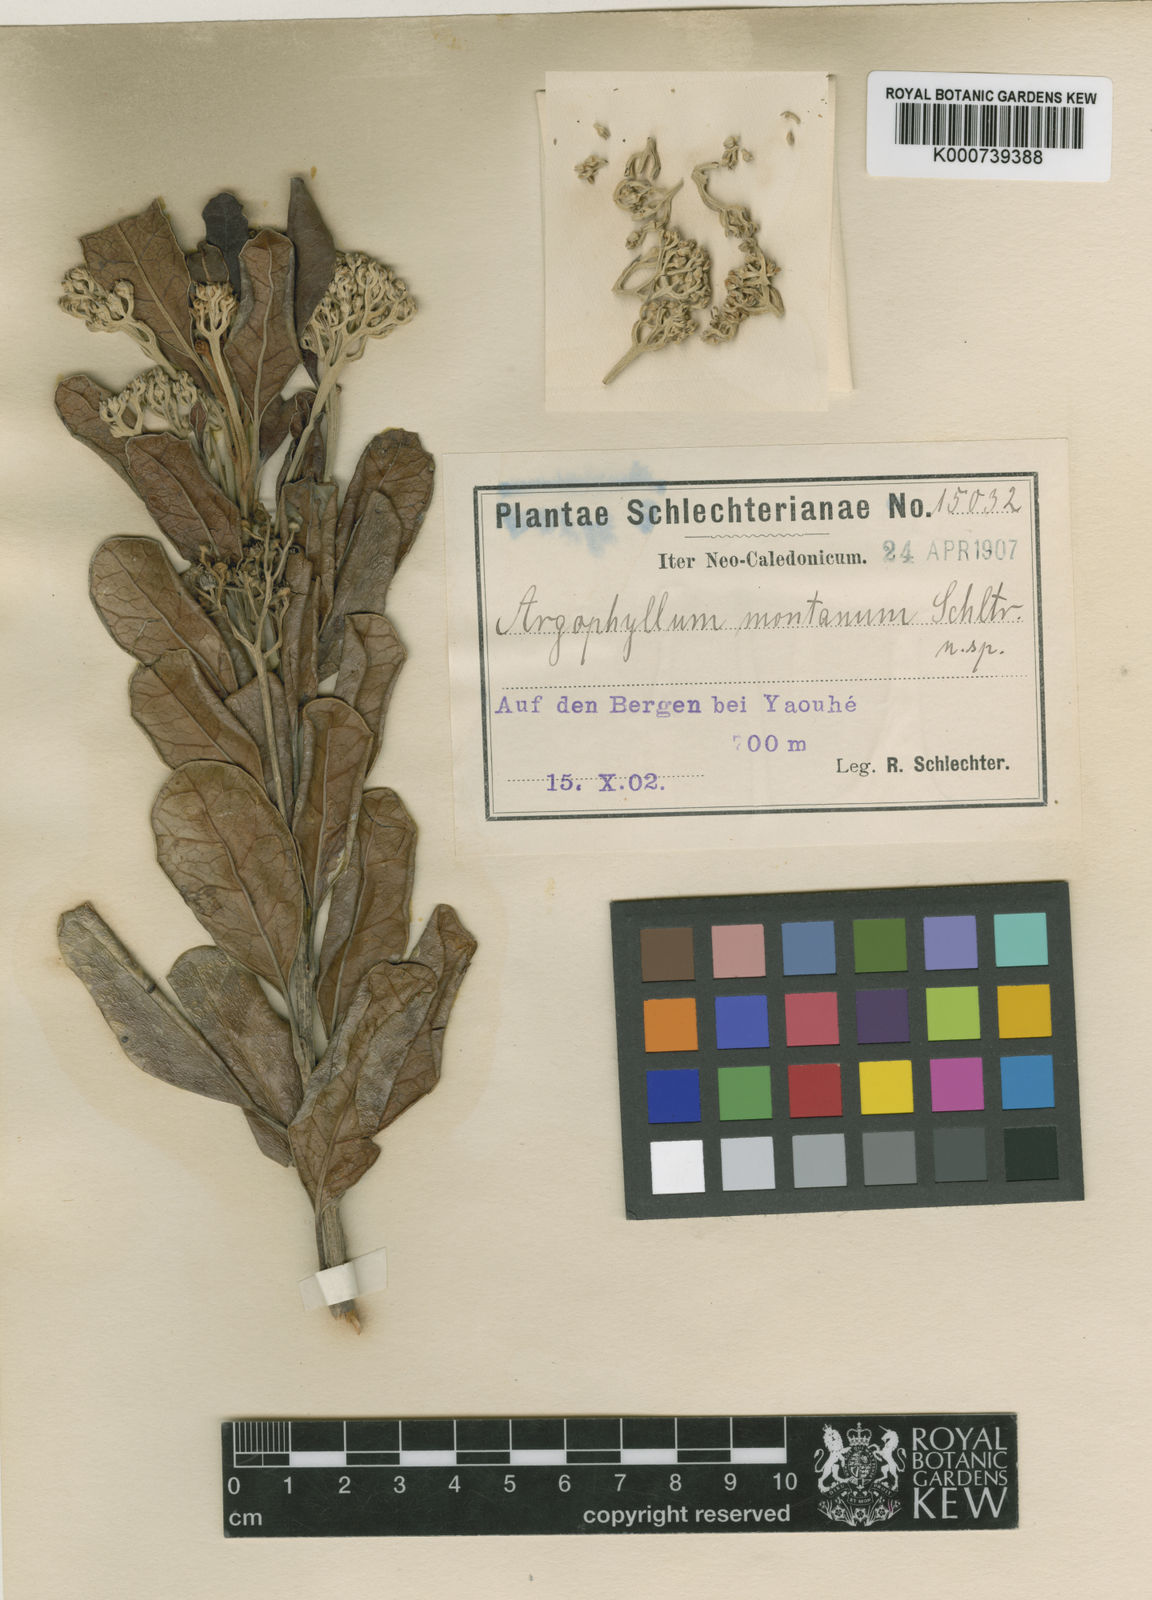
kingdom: Plantae
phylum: Tracheophyta
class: Magnoliopsida
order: Asterales
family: Argophyllaceae
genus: Argophyllum
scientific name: Argophyllum montanum
